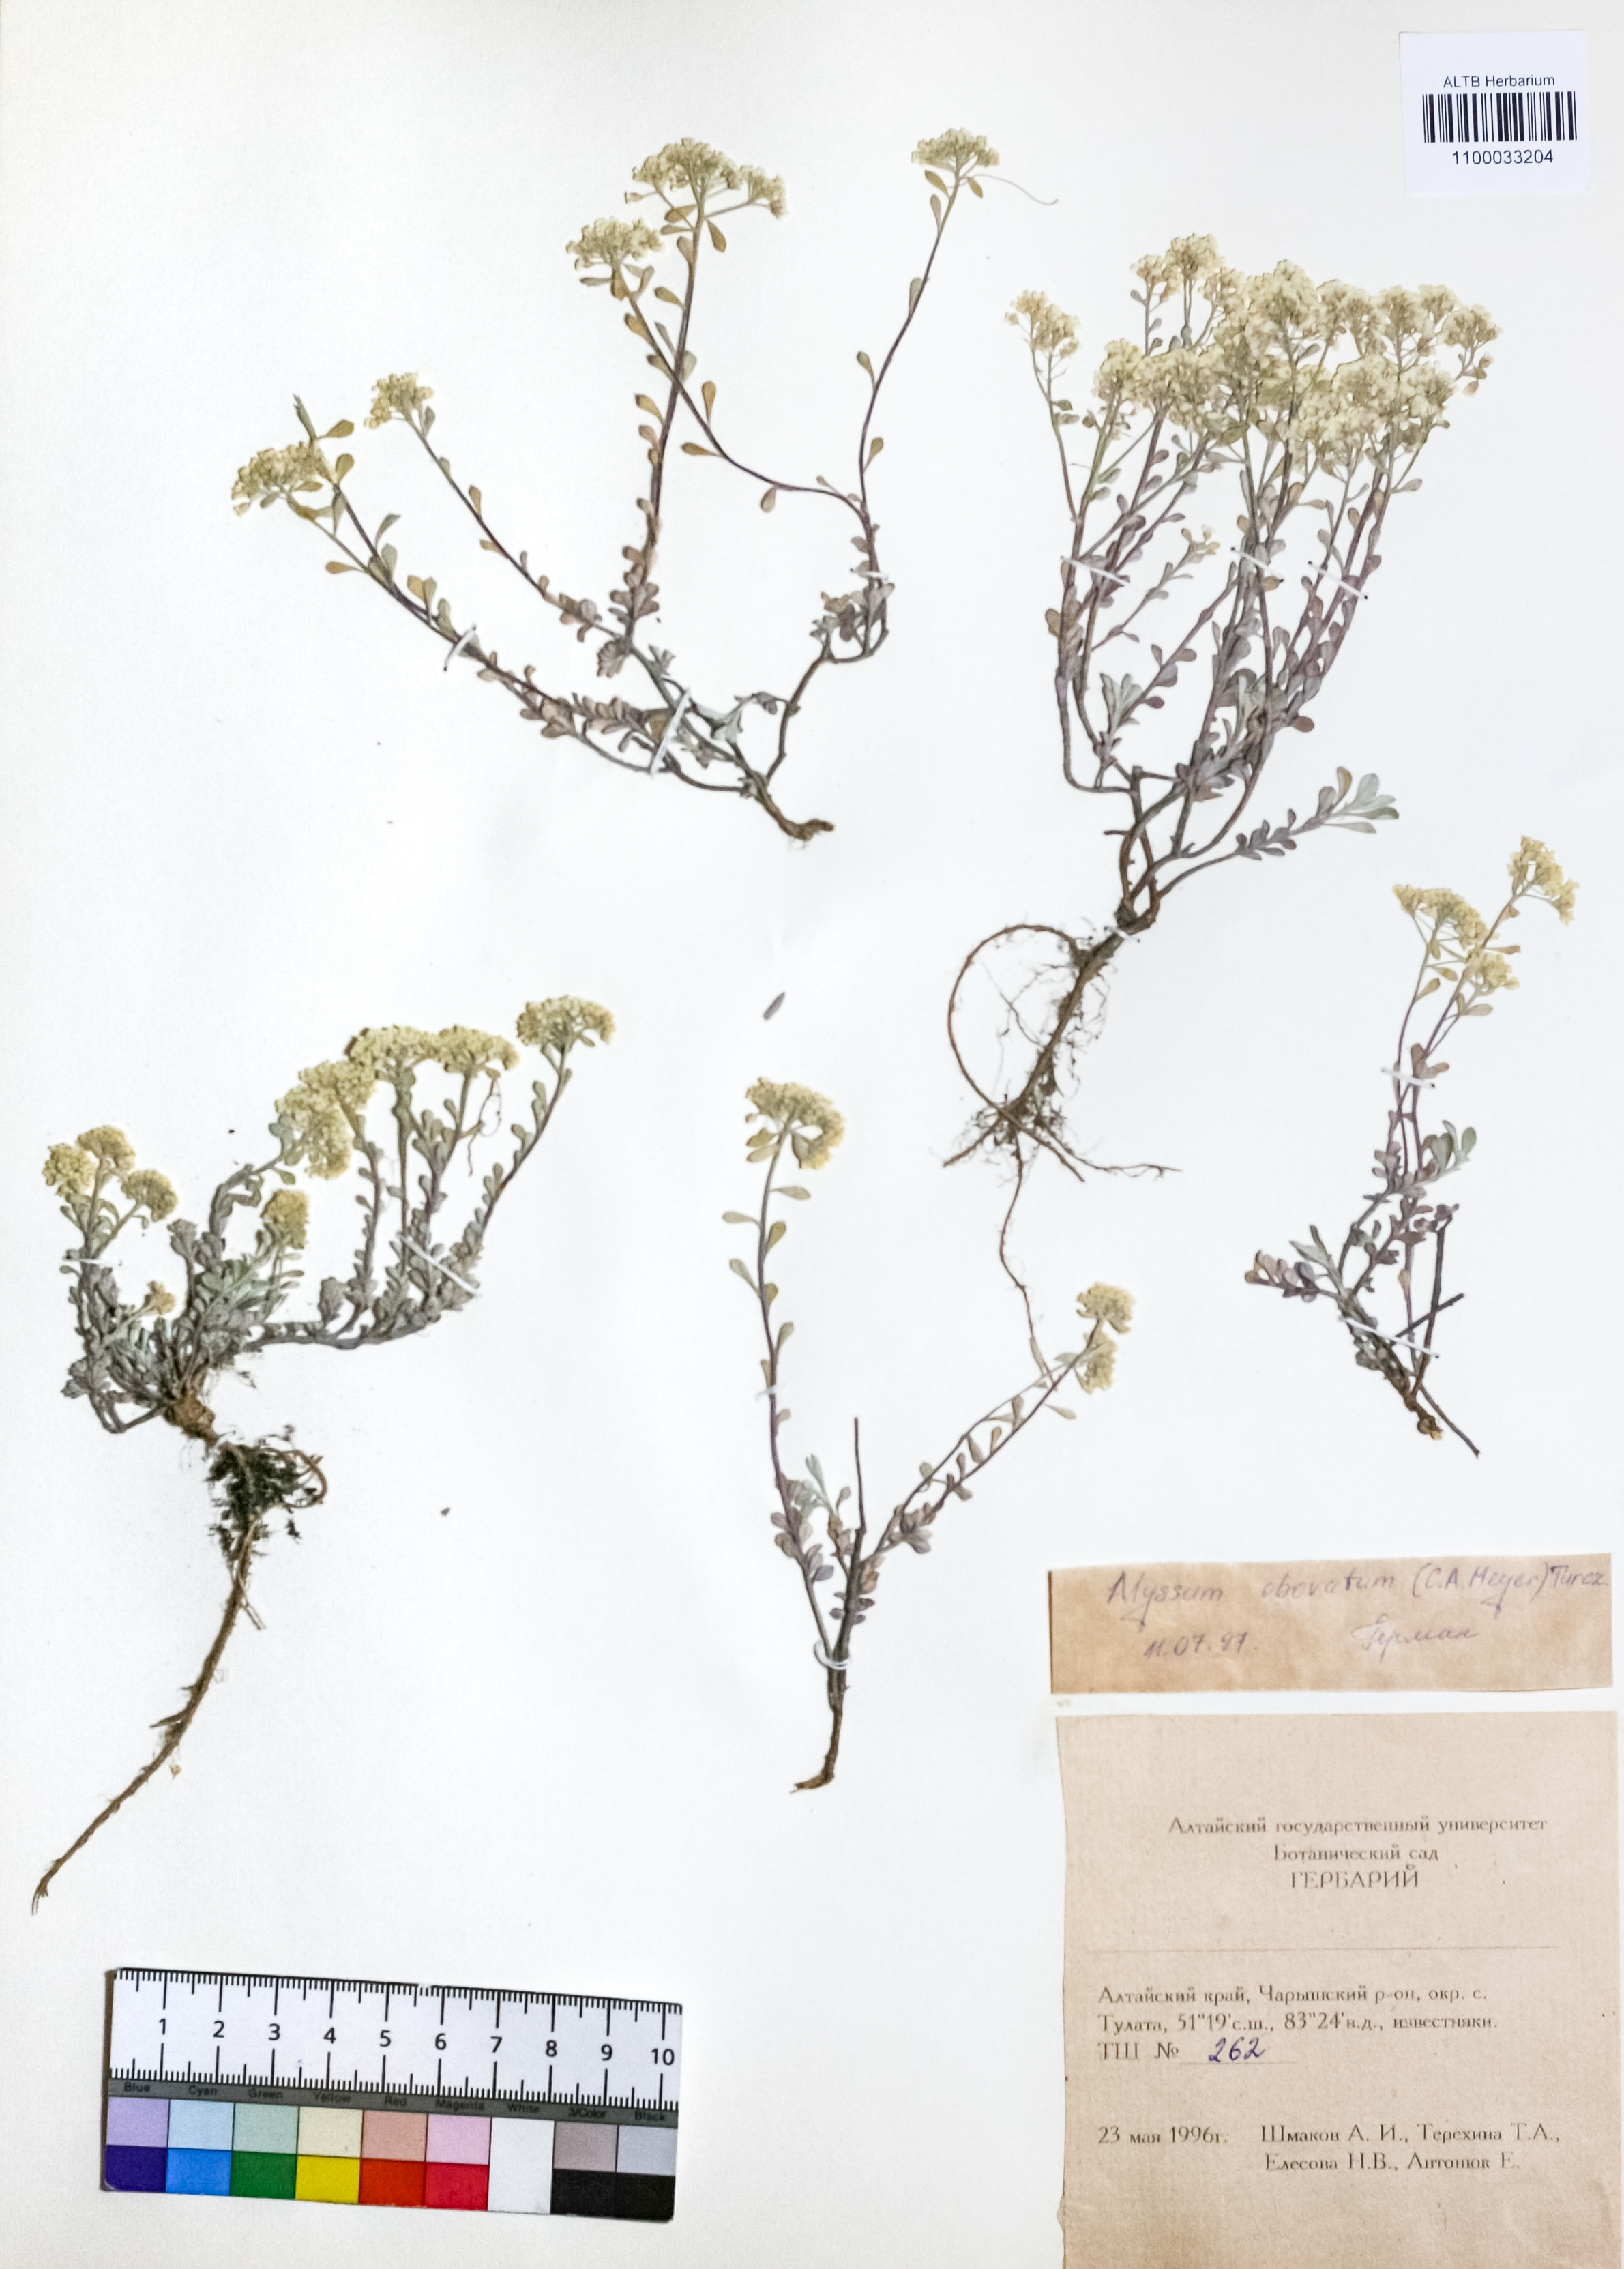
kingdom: Plantae
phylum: Tracheophyta
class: Magnoliopsida
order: Brassicales
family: Brassicaceae
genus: Odontarrhena
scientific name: Odontarrhena obovata
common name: American alyssum
